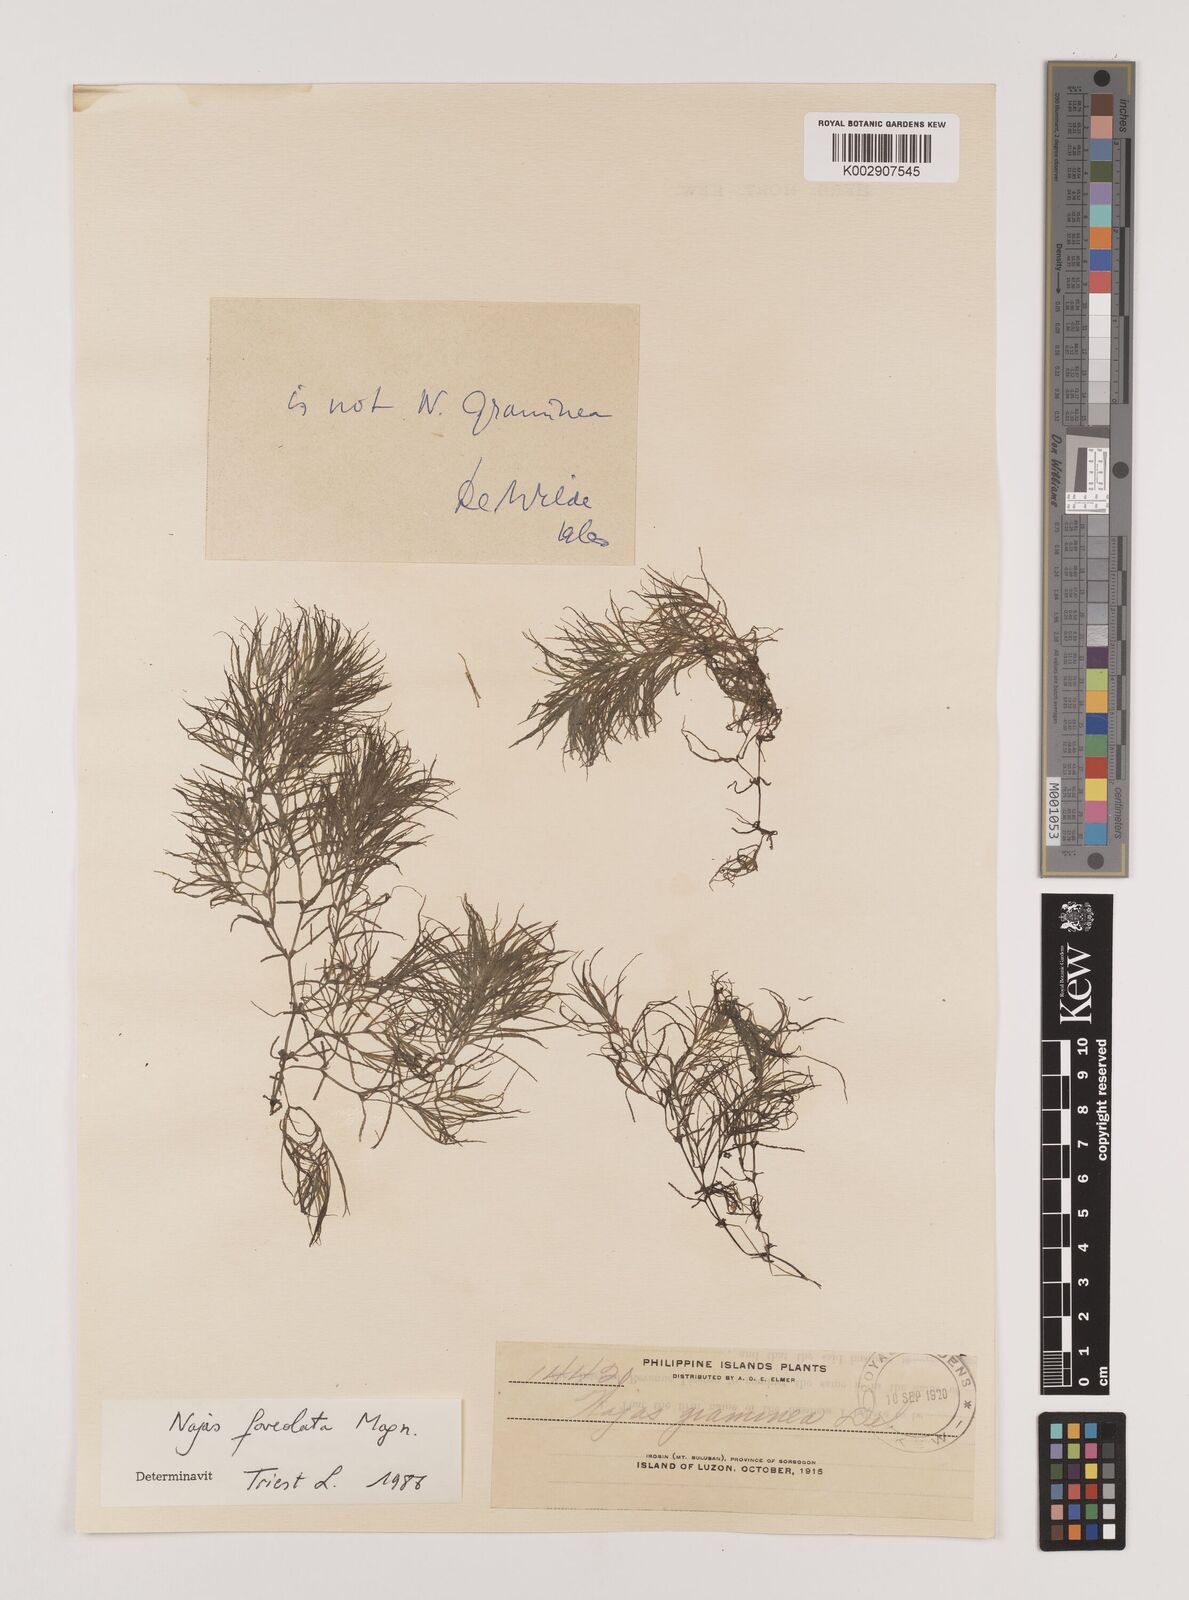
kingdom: Plantae
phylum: Tracheophyta
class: Liliopsida
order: Alismatales
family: Hydrocharitaceae
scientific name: Hydrocharitaceae
